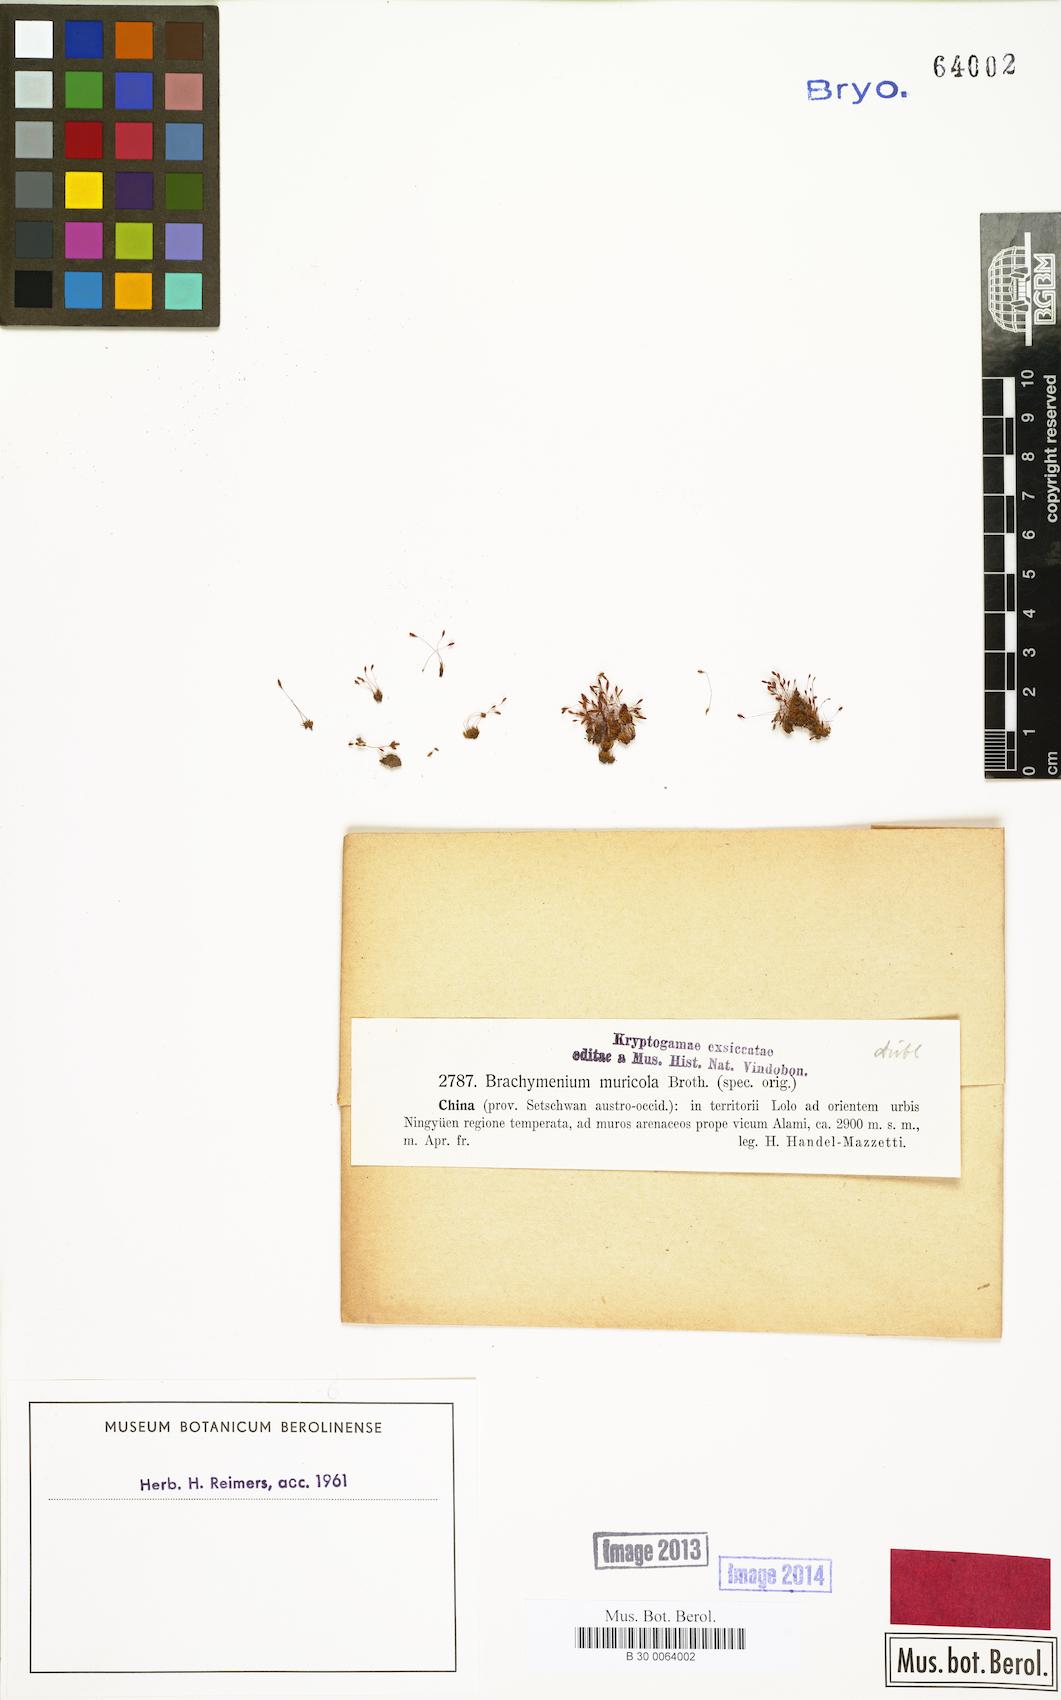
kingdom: Plantae
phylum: Bryophyta
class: Bryopsida
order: Bryales
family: Bryaceae
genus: Brachymenium
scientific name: Brachymenium muricola
